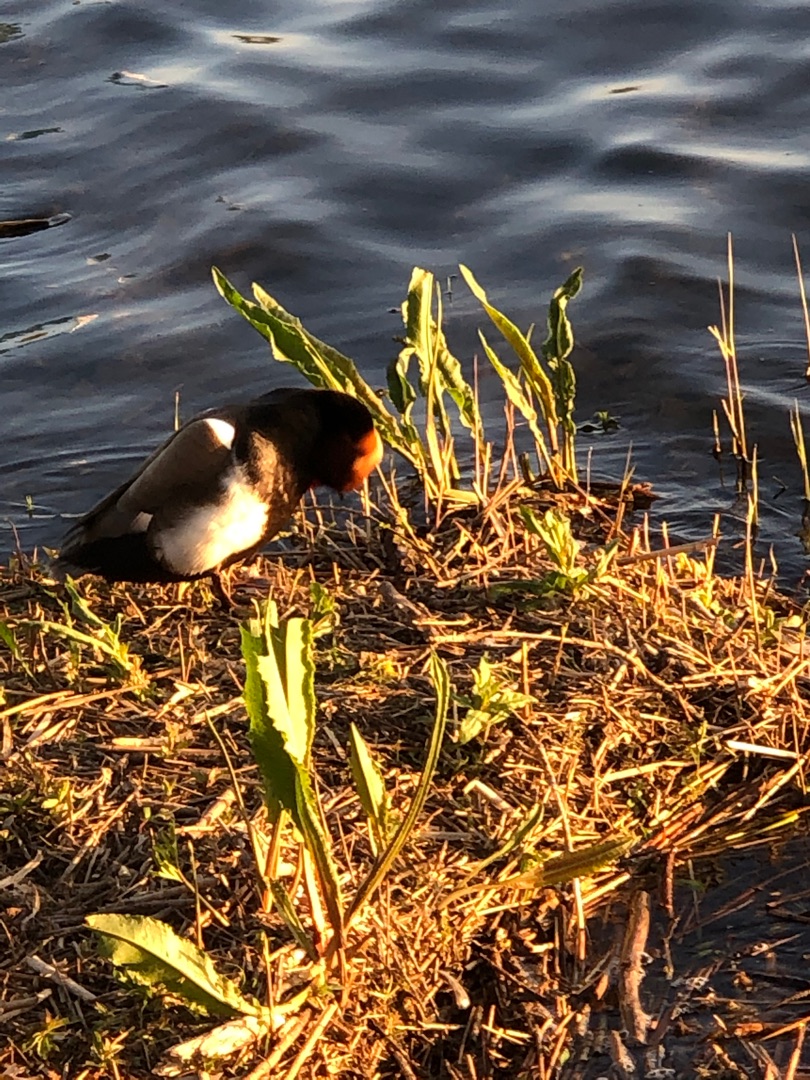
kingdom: Animalia
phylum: Chordata
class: Aves
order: Anseriformes
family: Anatidae
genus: Netta
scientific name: Netta rufina
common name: Rødhovedet and
